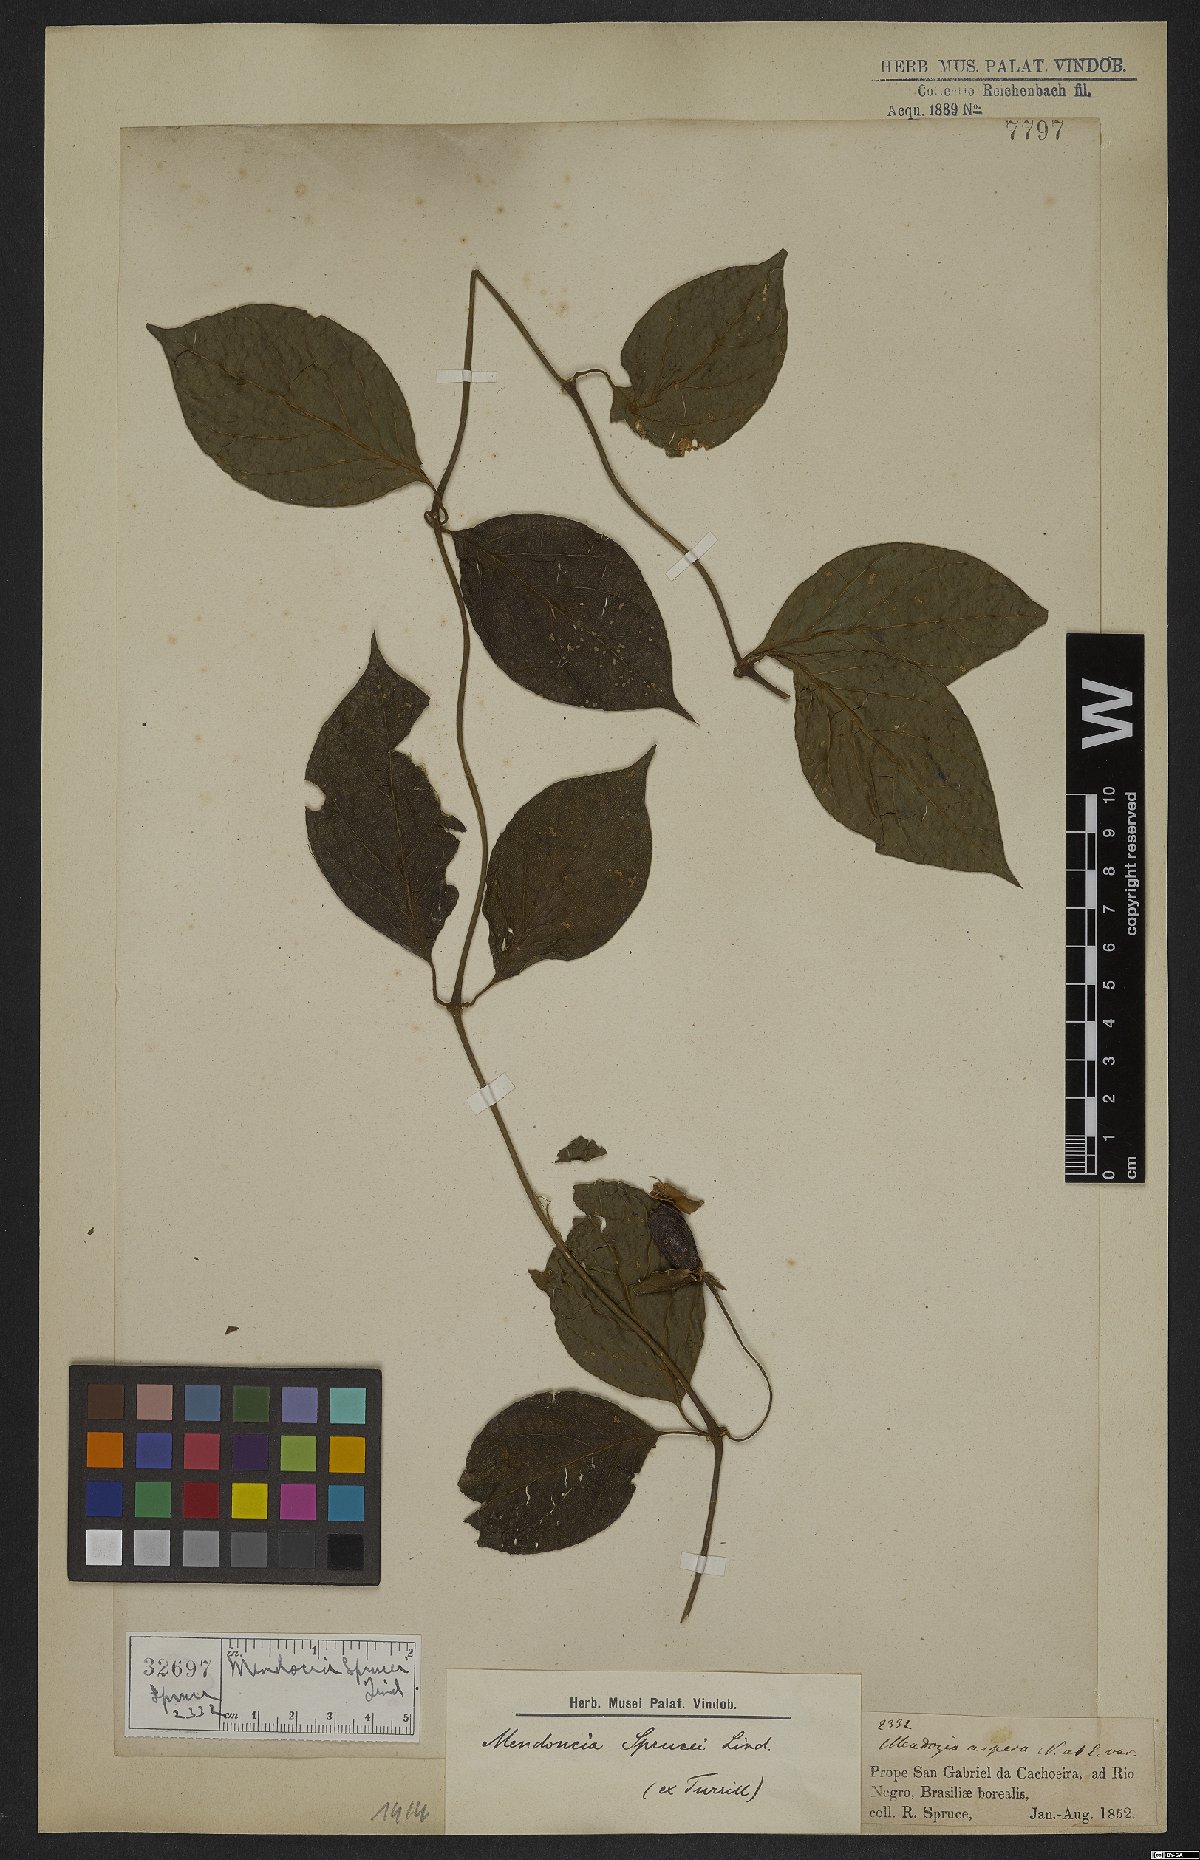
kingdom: Plantae
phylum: Tracheophyta
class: Magnoliopsida
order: Lamiales
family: Acanthaceae
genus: Mendoncia
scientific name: Mendoncia sprucei
